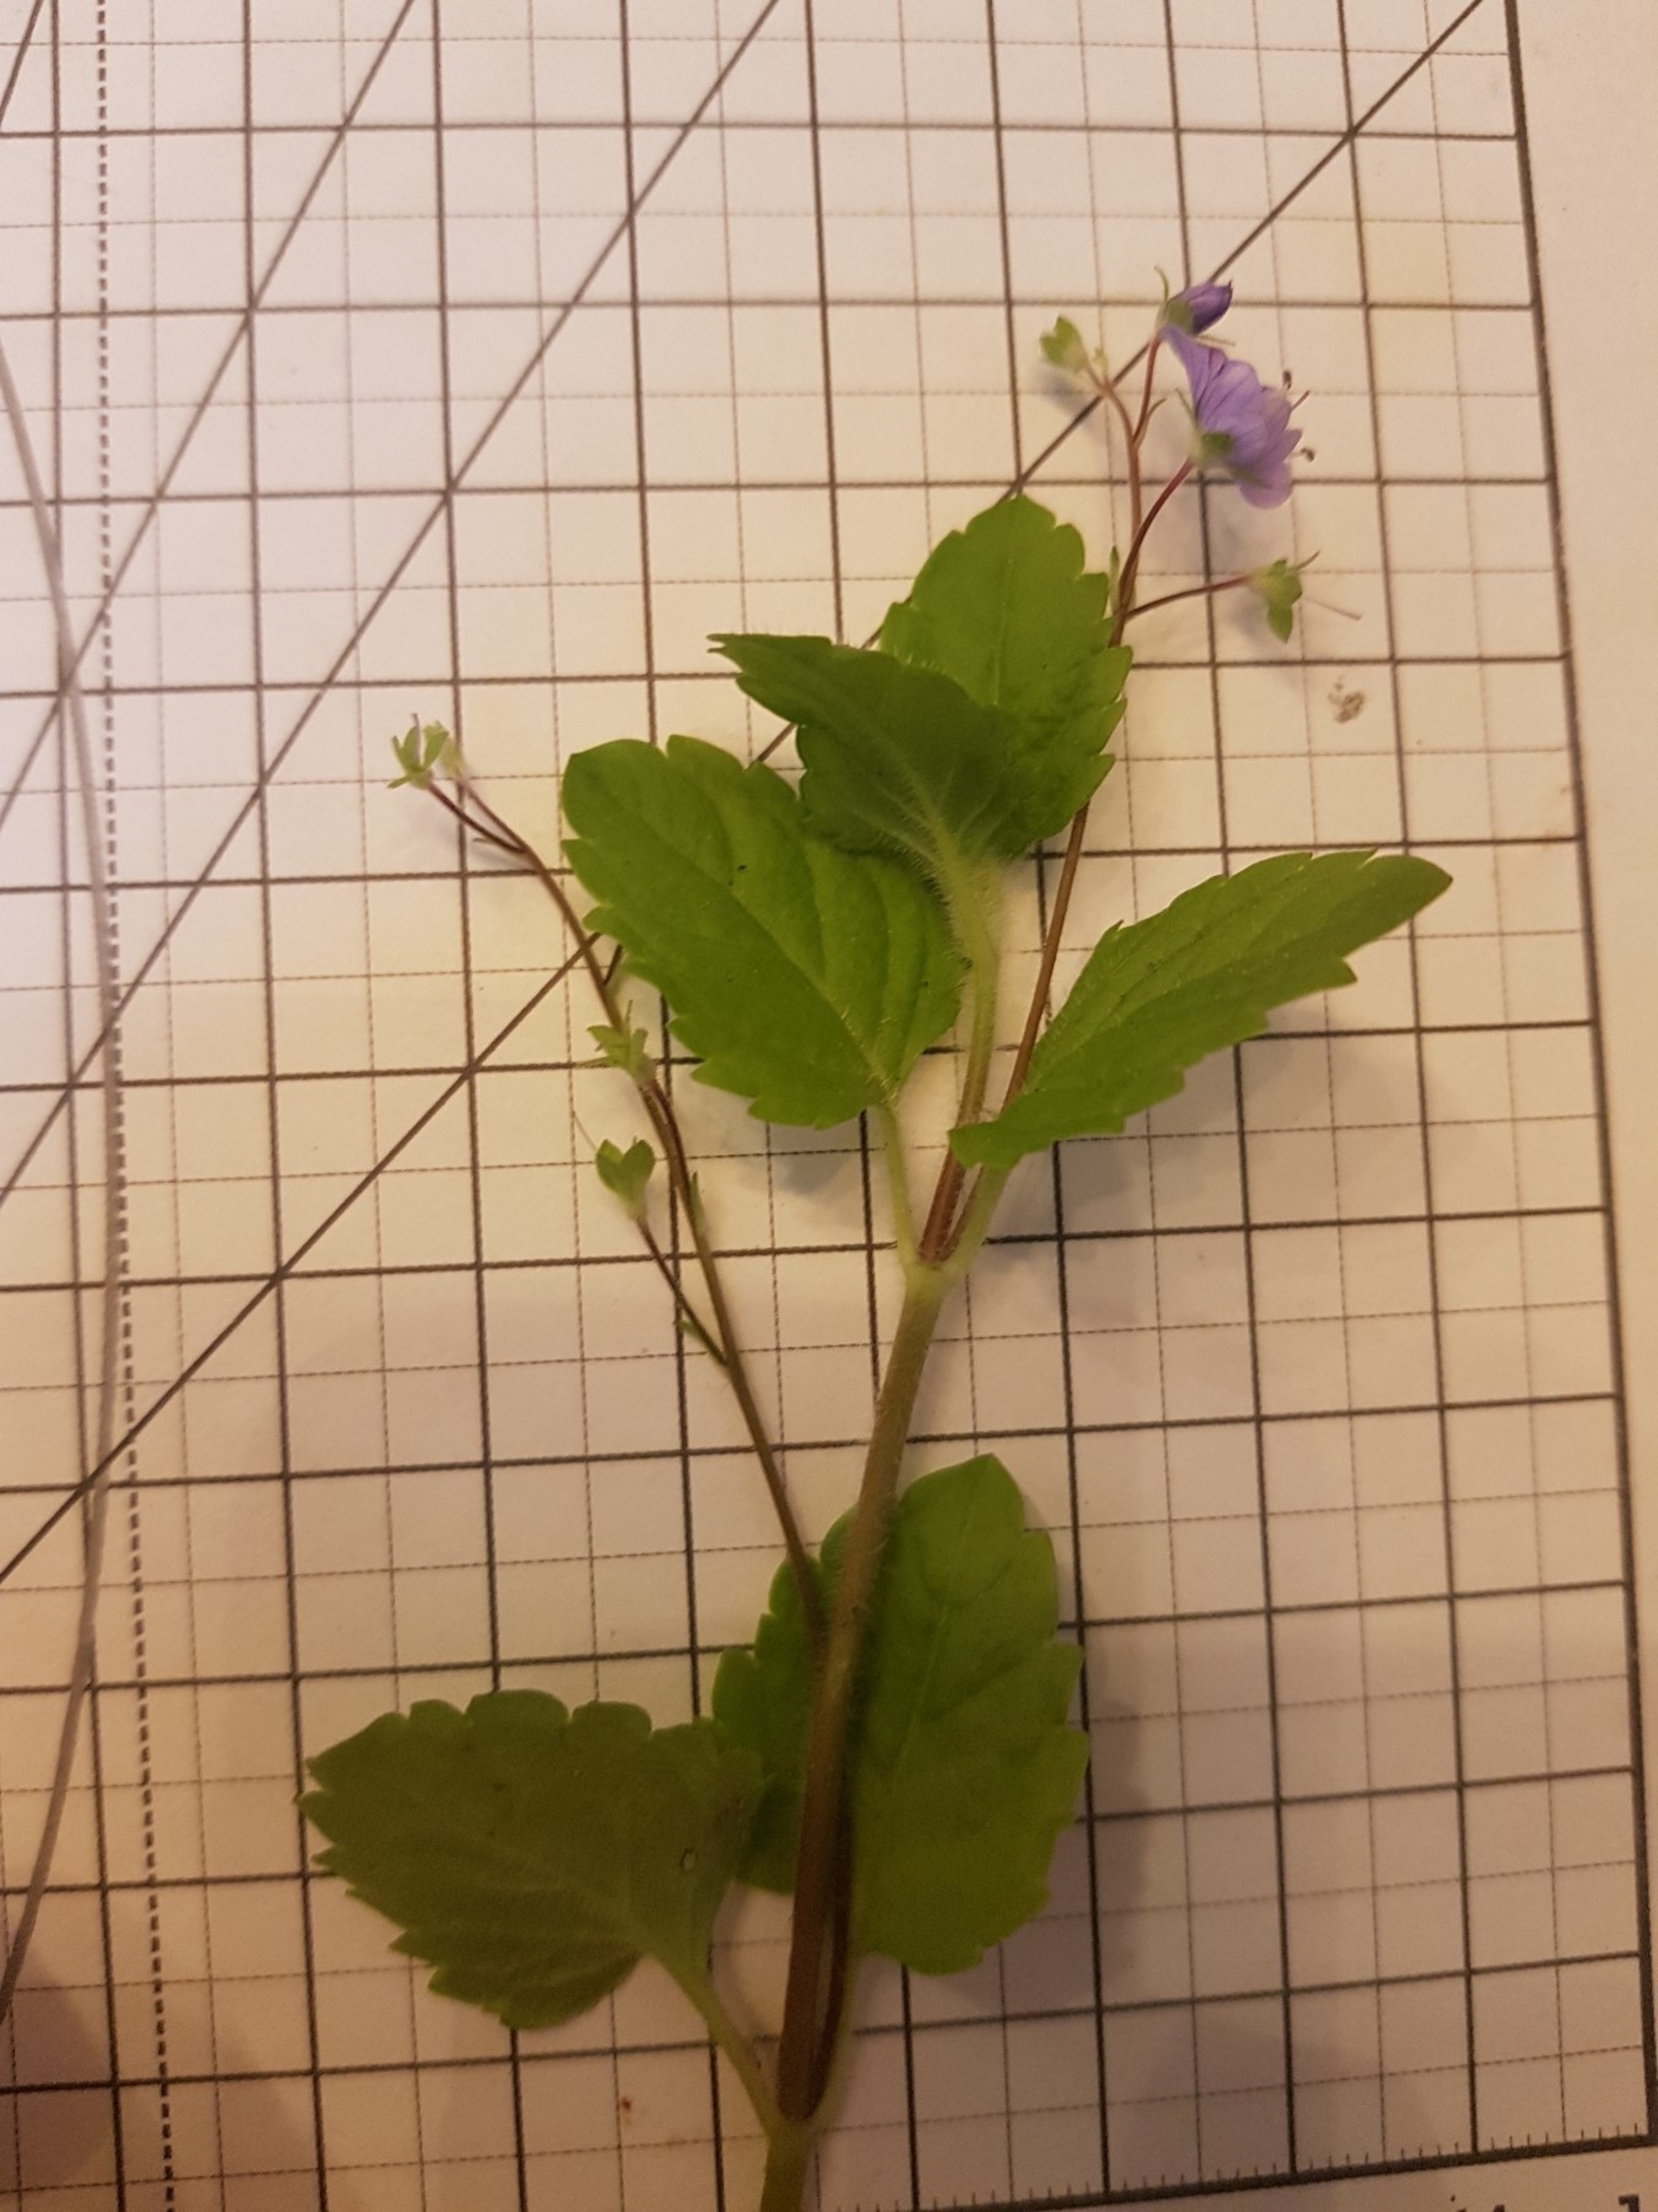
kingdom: Plantae
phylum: Tracheophyta
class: Magnoliopsida
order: Lamiales
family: Plantaginaceae
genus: Veronica
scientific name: Veronica montana
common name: Bjerg-ærenpris
